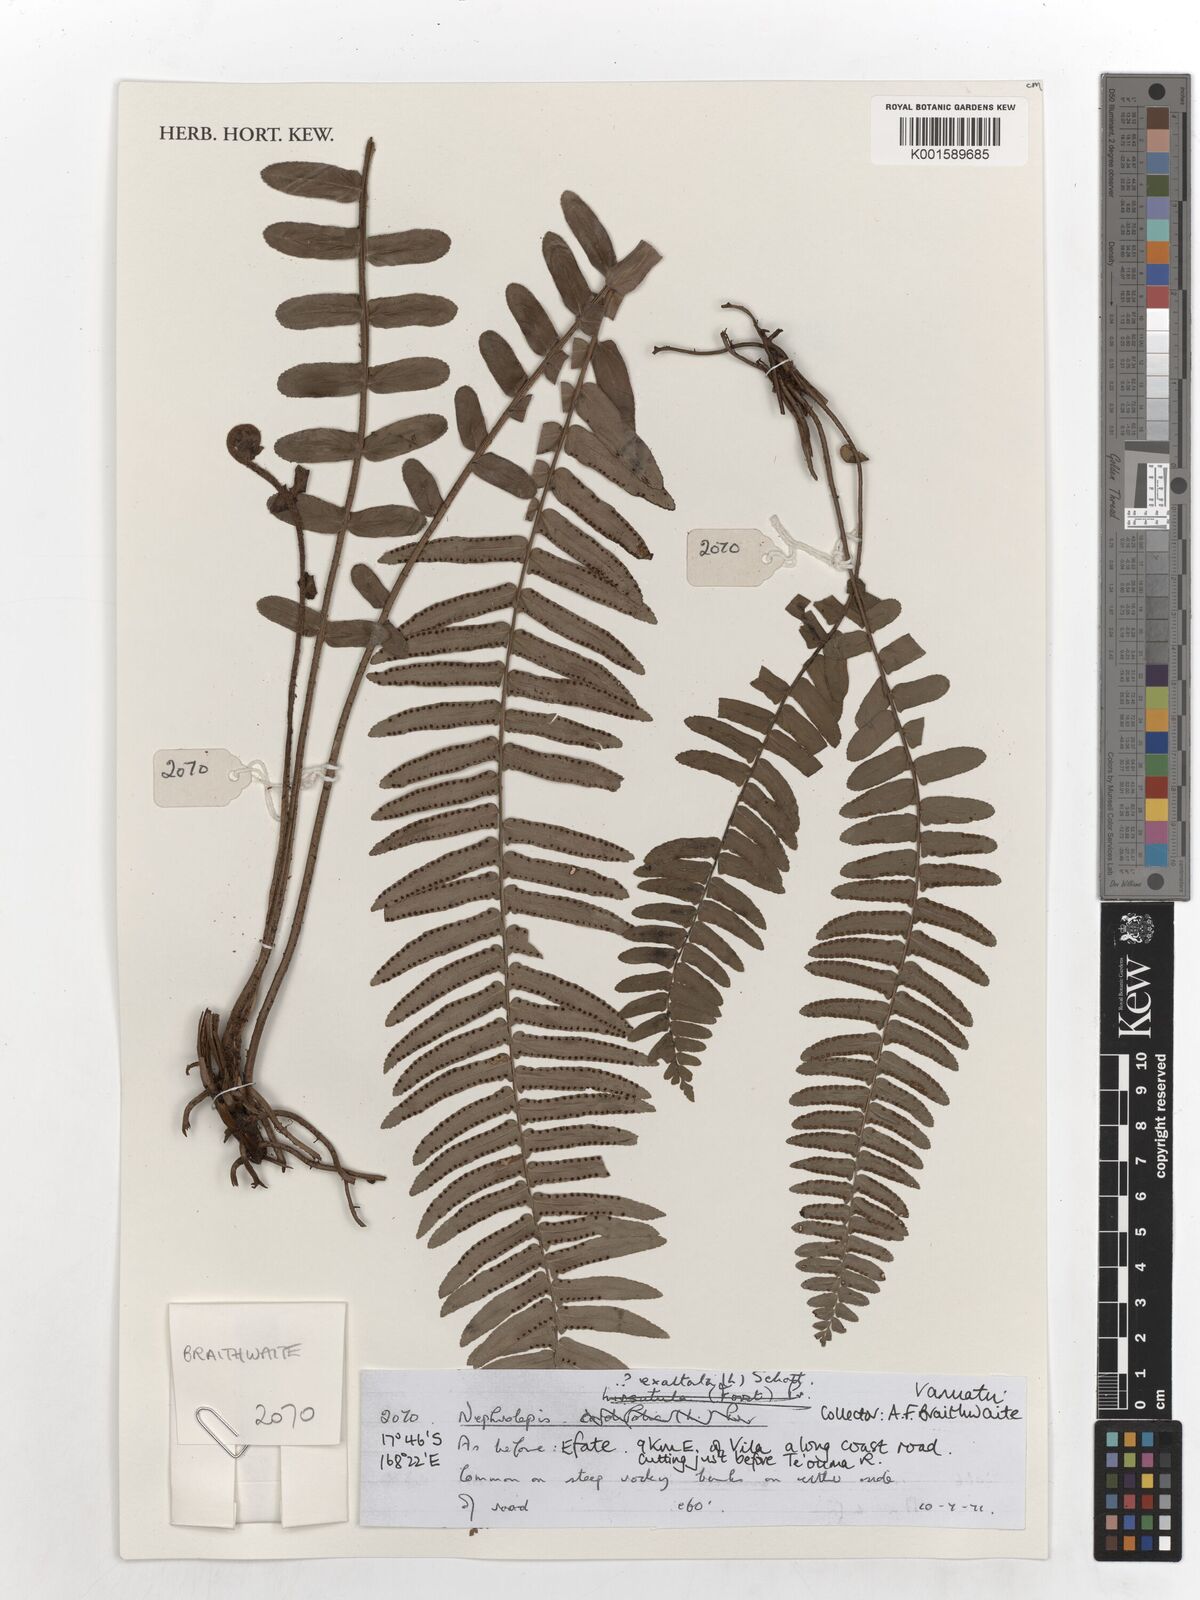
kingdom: Plantae
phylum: Tracheophyta
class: Polypodiopsida
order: Polypodiales
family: Nephrolepidaceae
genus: Nephrolepis
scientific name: Nephrolepis exaltata
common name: Sword fern
